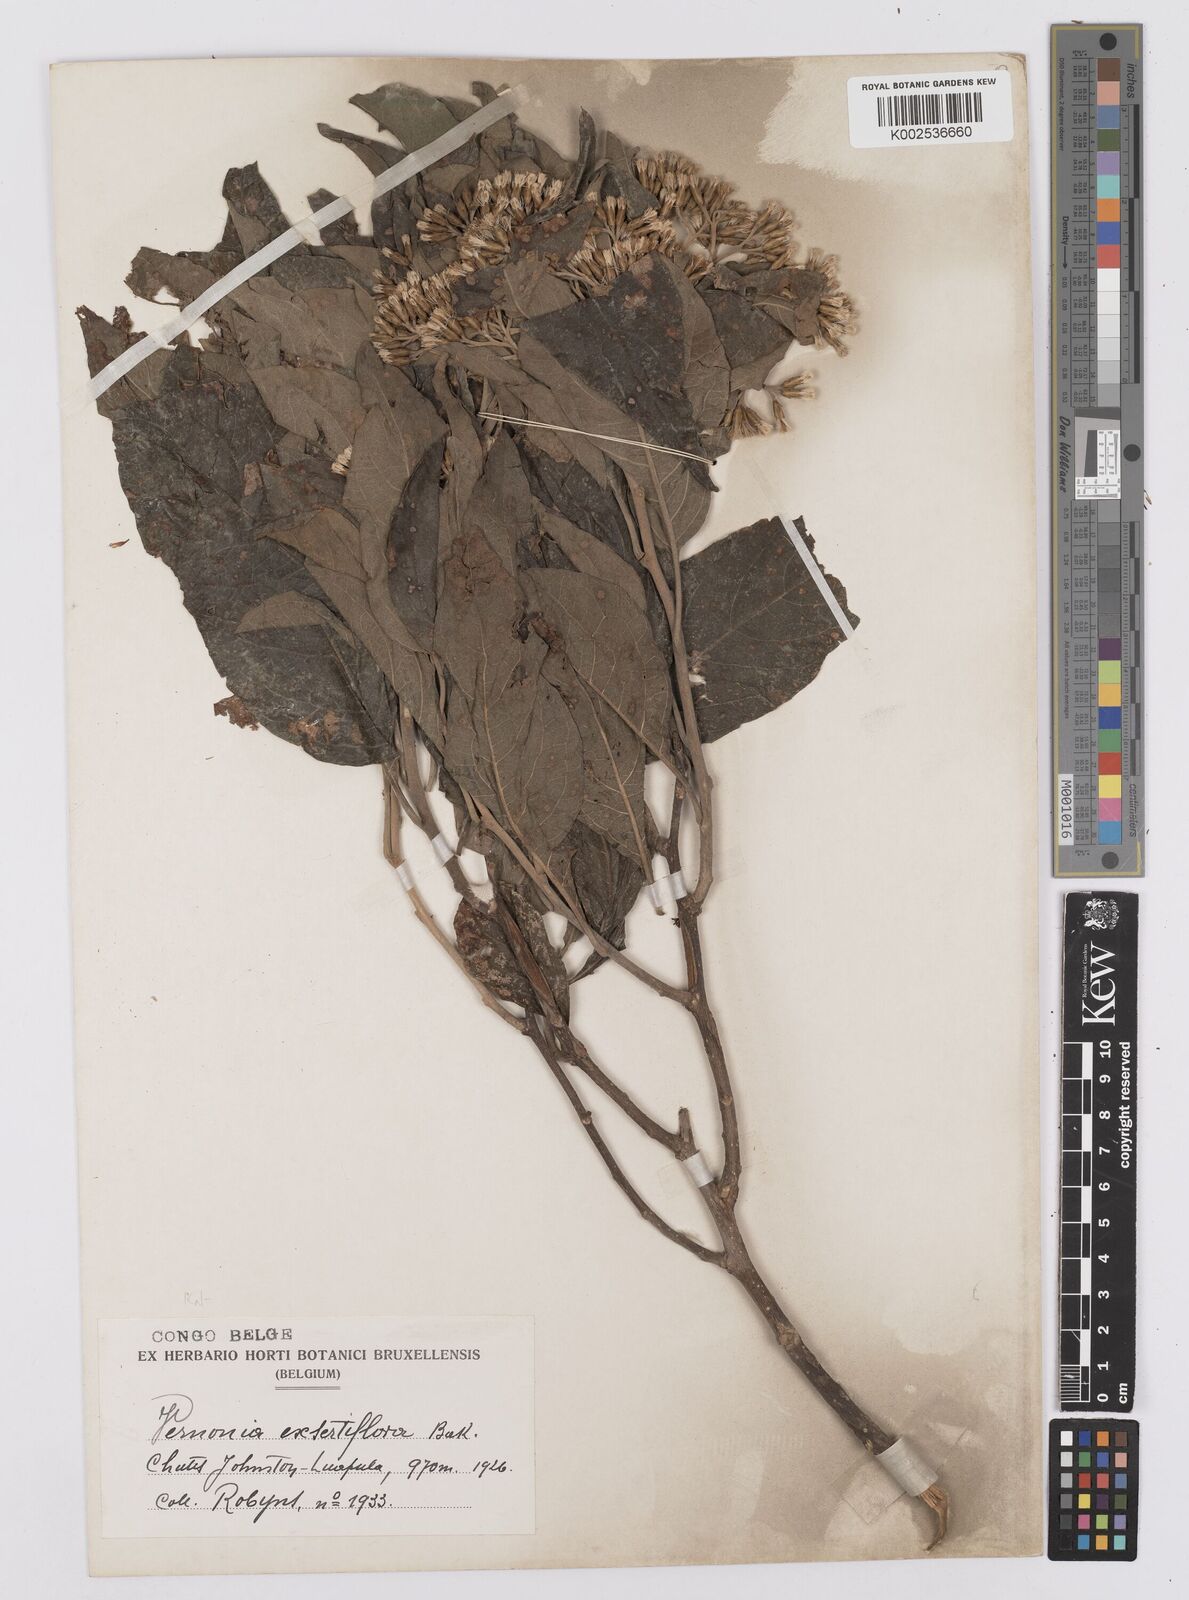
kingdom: Plantae
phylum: Tracheophyta
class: Magnoliopsida
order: Asterales
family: Asteraceae
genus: Gymnanthemum
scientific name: Gymnanthemum exsertiflorum
